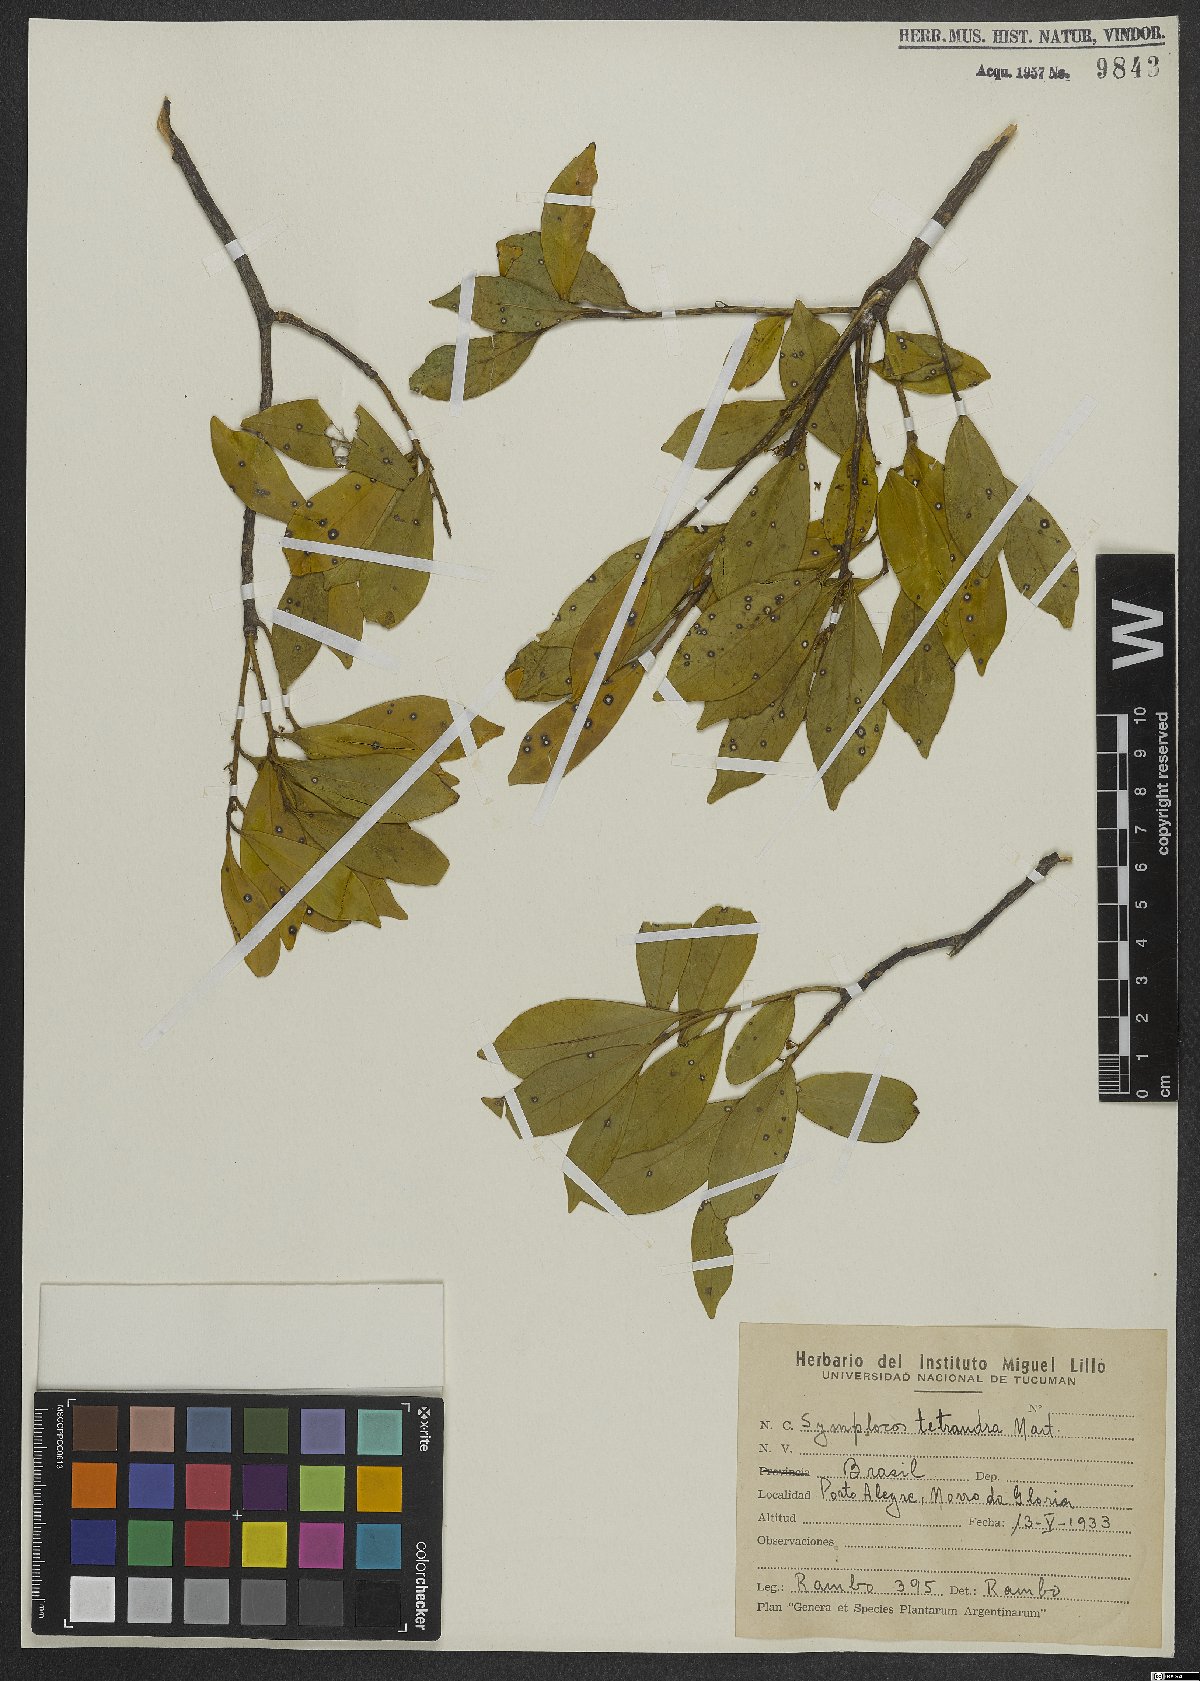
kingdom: Plantae
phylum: Tracheophyta
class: Magnoliopsida
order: Ericales
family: Symplocaceae
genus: Symplocos
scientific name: Symplocos tetrandra
